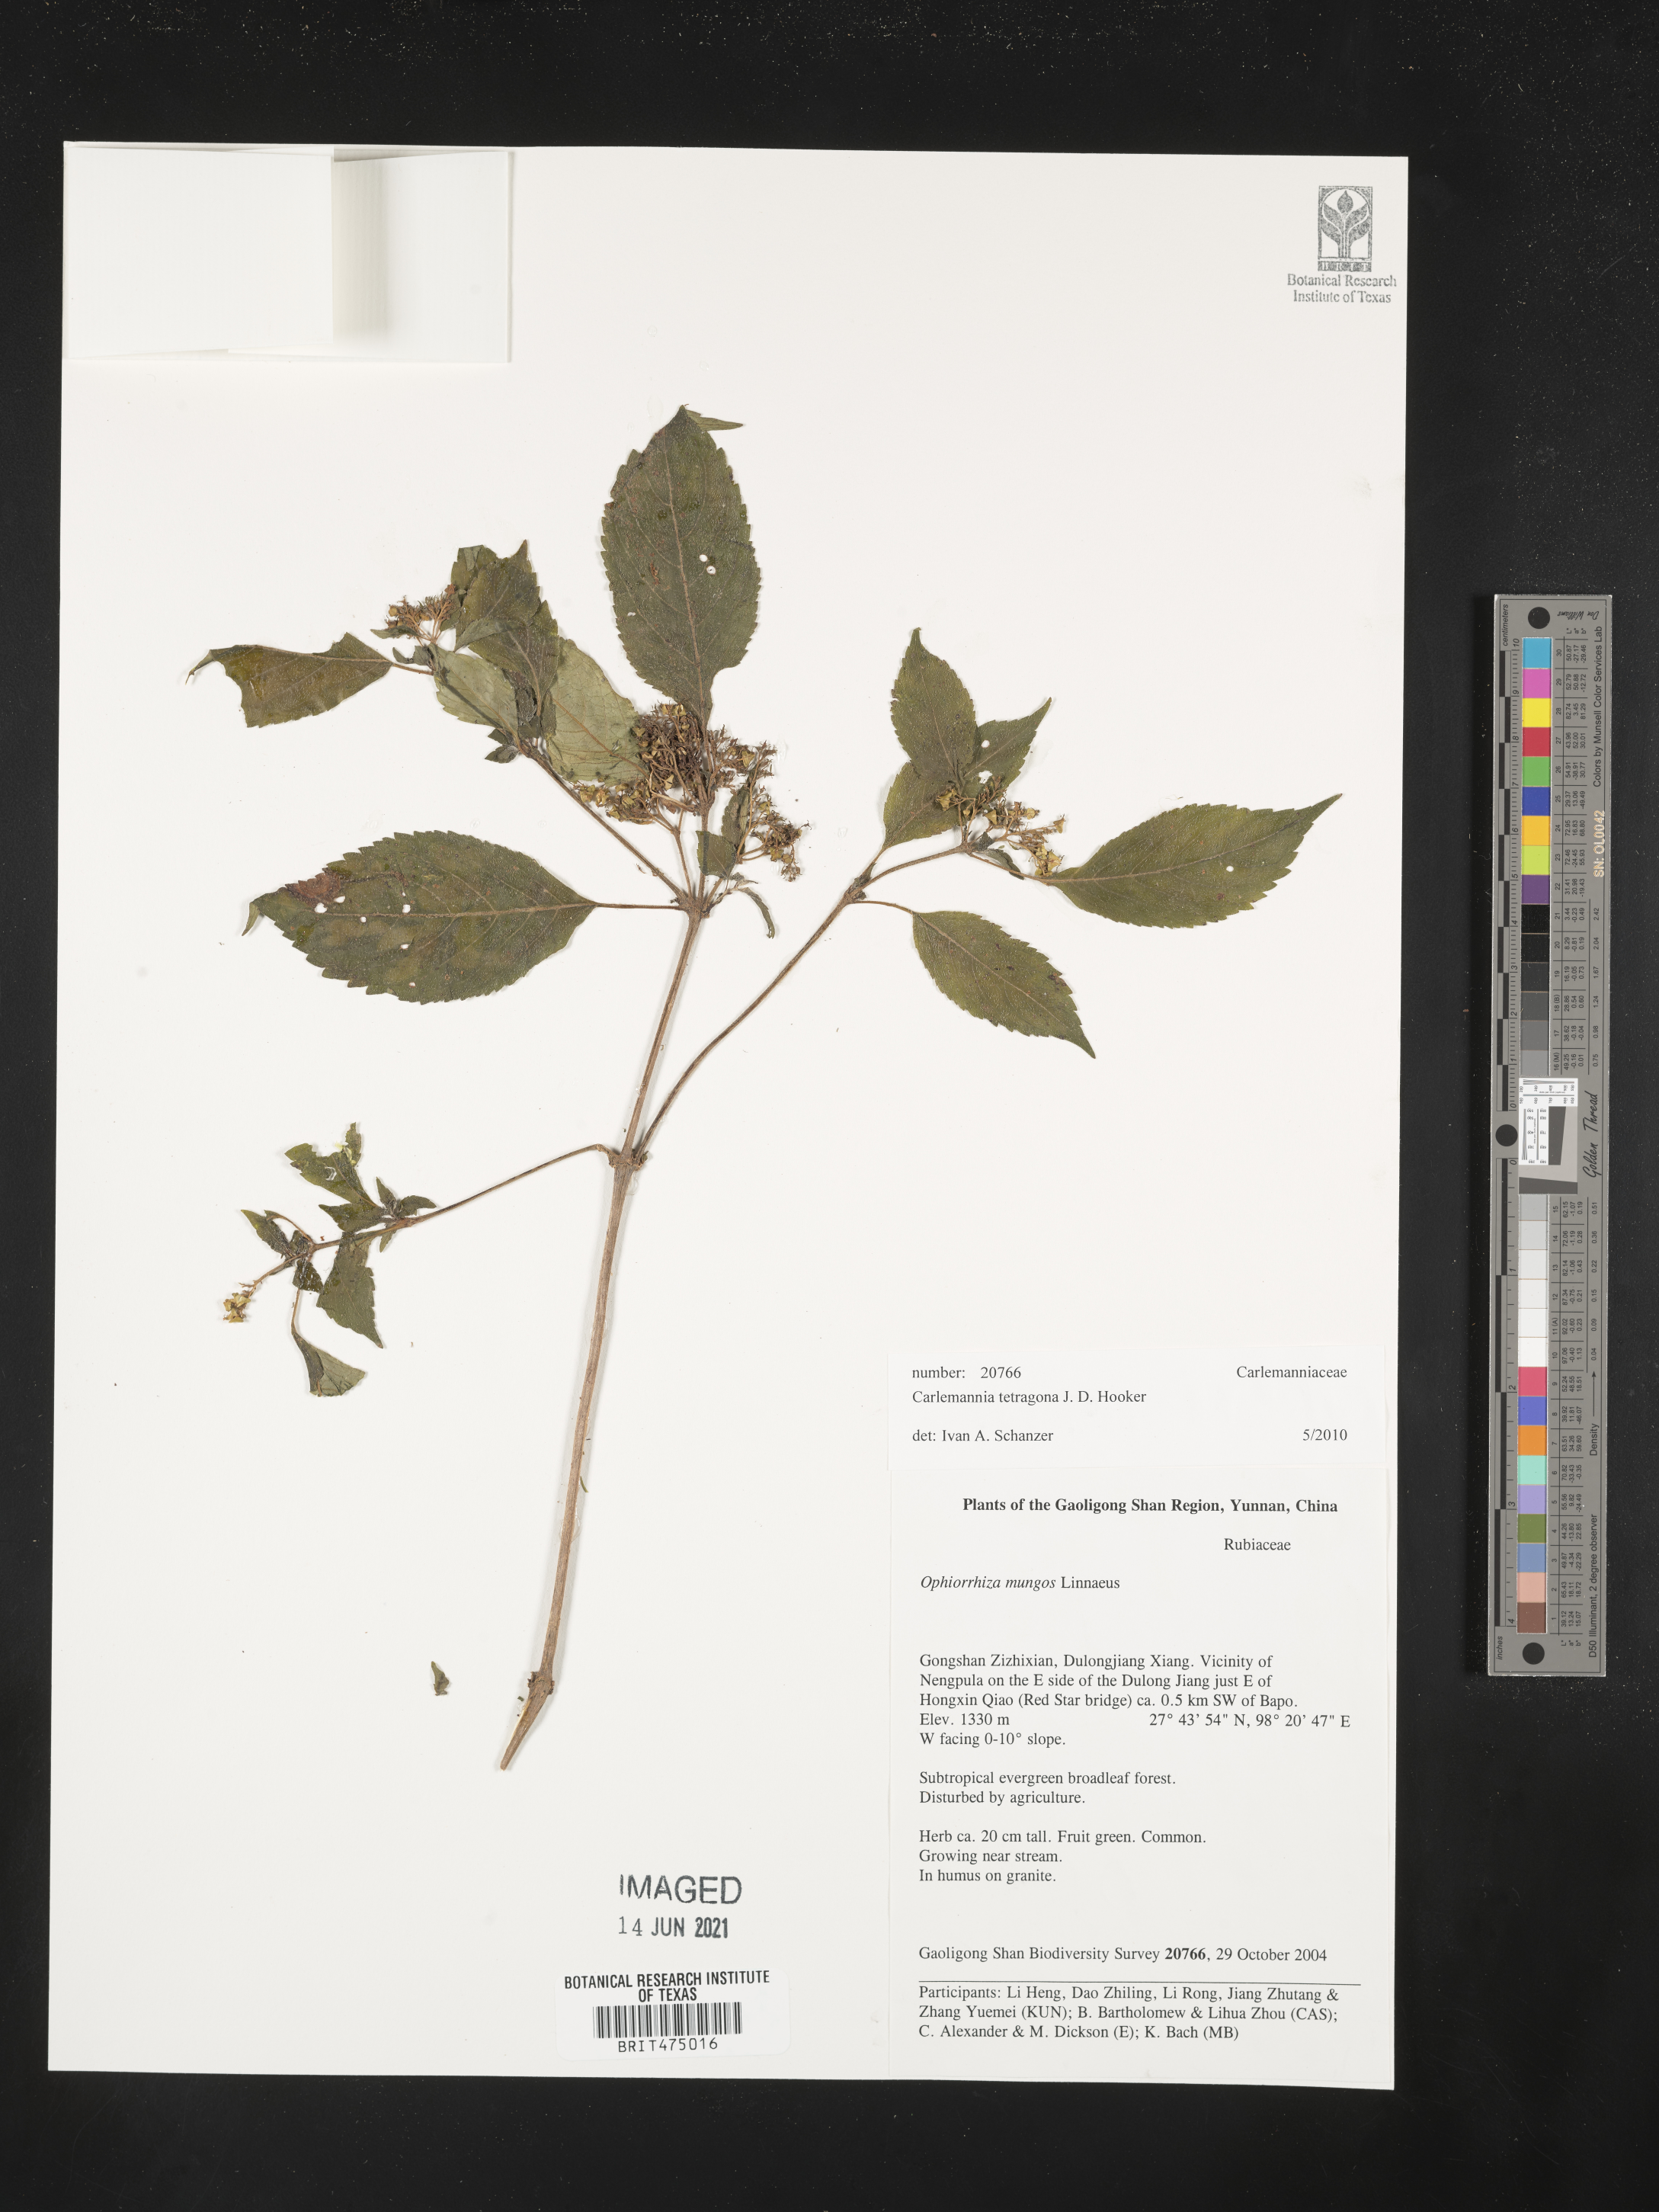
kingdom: Plantae
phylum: Tracheophyta
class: Magnoliopsida
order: Lamiales
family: Carlemanniaceae
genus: Carlemannia
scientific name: Carlemannia tetragona
